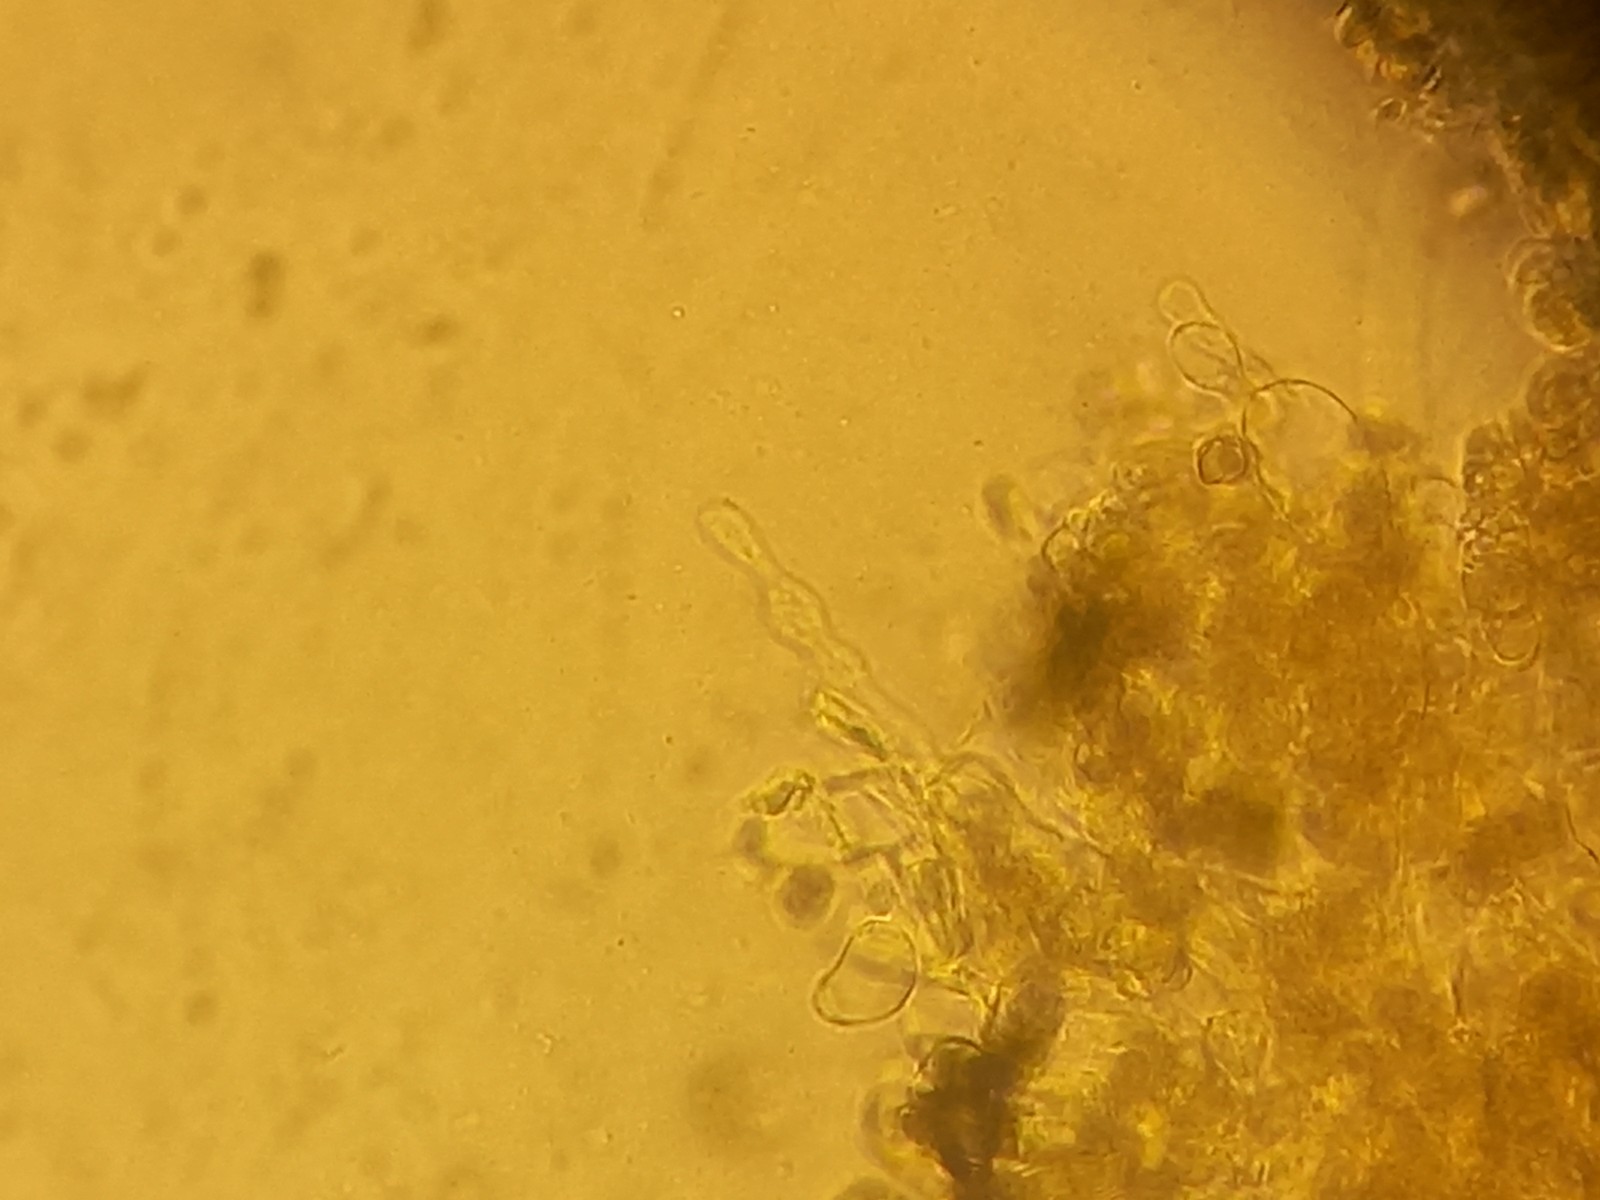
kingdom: Fungi
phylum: Basidiomycota
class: Agaricomycetes
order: Agaricales
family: Entolomataceae
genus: Entoloma
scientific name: Entoloma porphyrophaeum
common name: porfyrbrun rødblad
